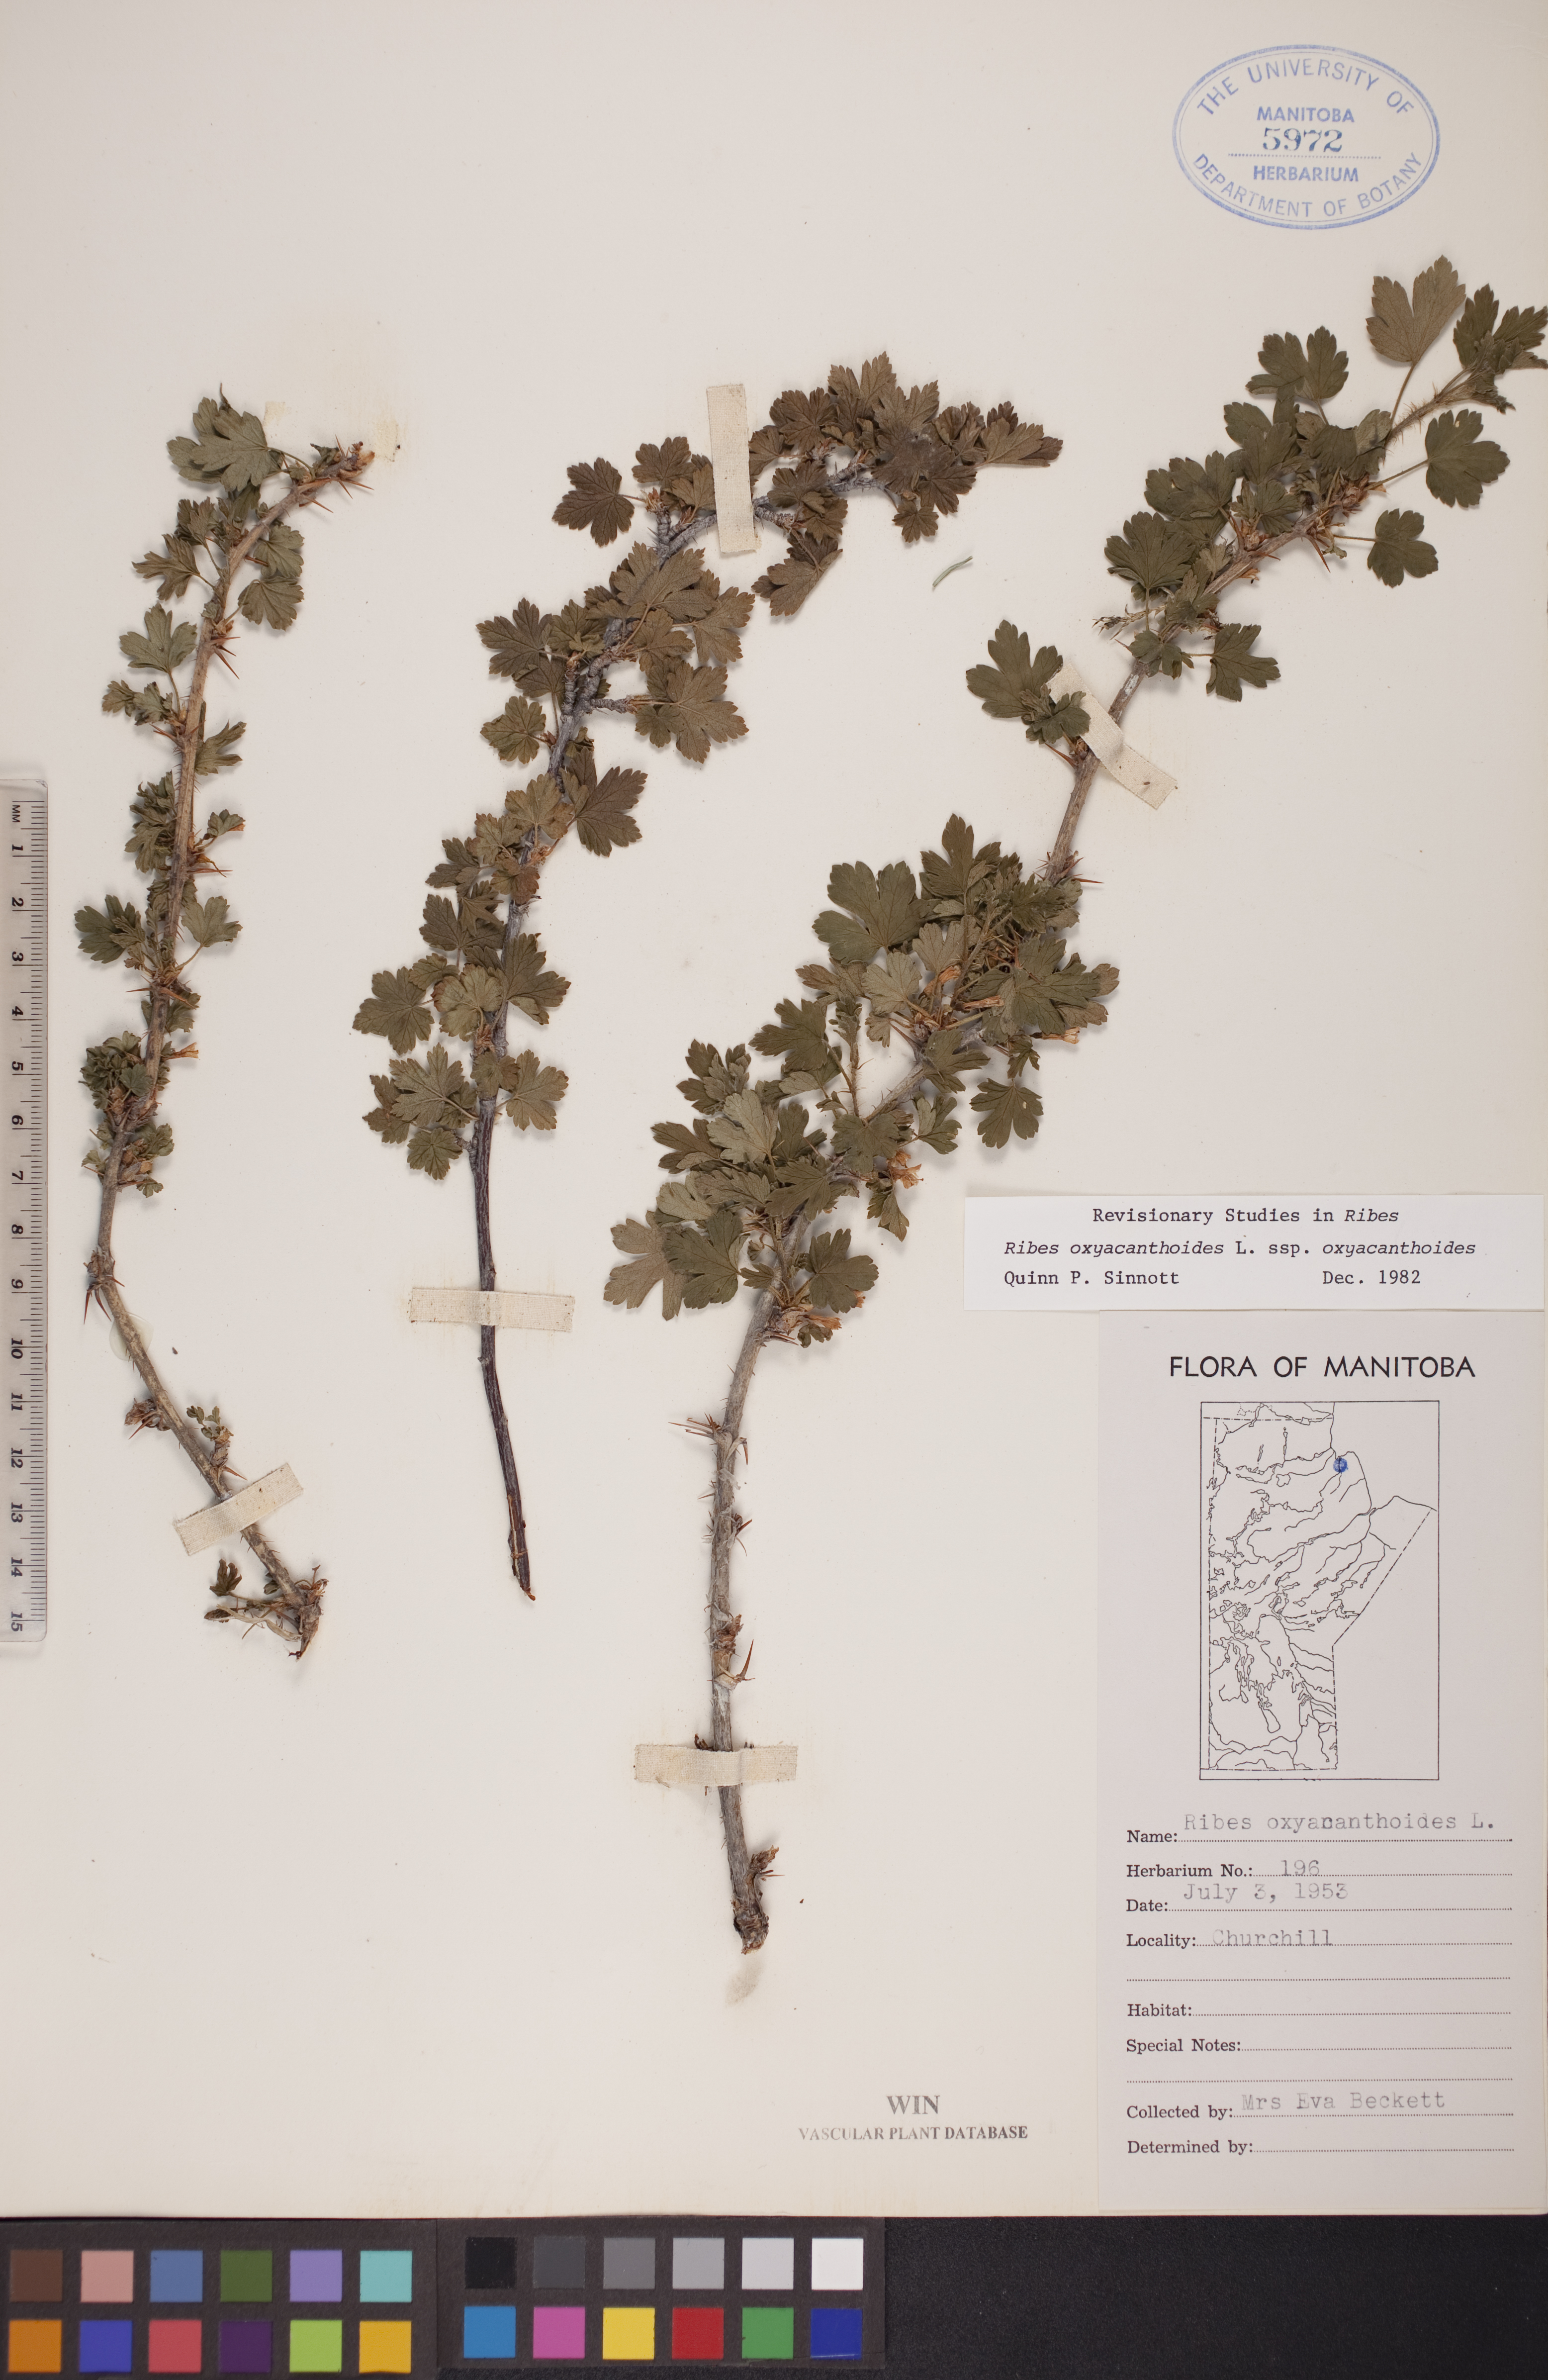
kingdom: Plantae
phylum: Tracheophyta
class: Magnoliopsida
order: Saxifragales
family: Grossulariaceae
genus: Ribes
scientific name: Ribes oxyacanthoides
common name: Northern gooseberry
